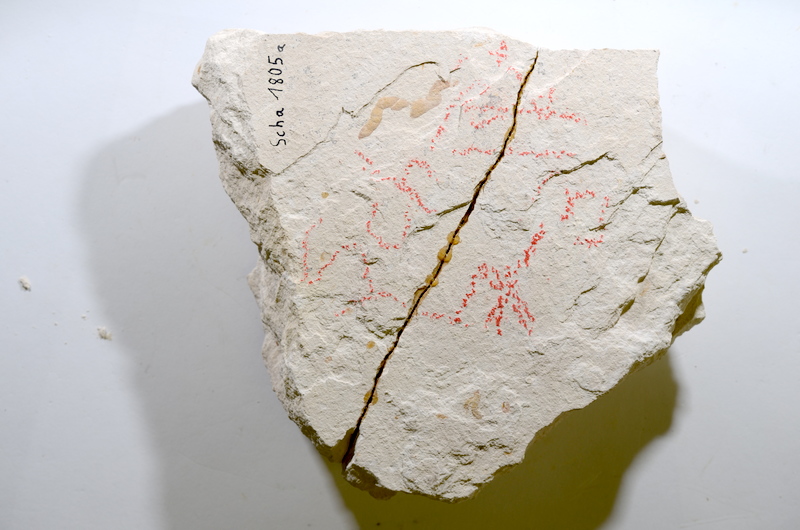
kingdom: Animalia
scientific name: Animalia
